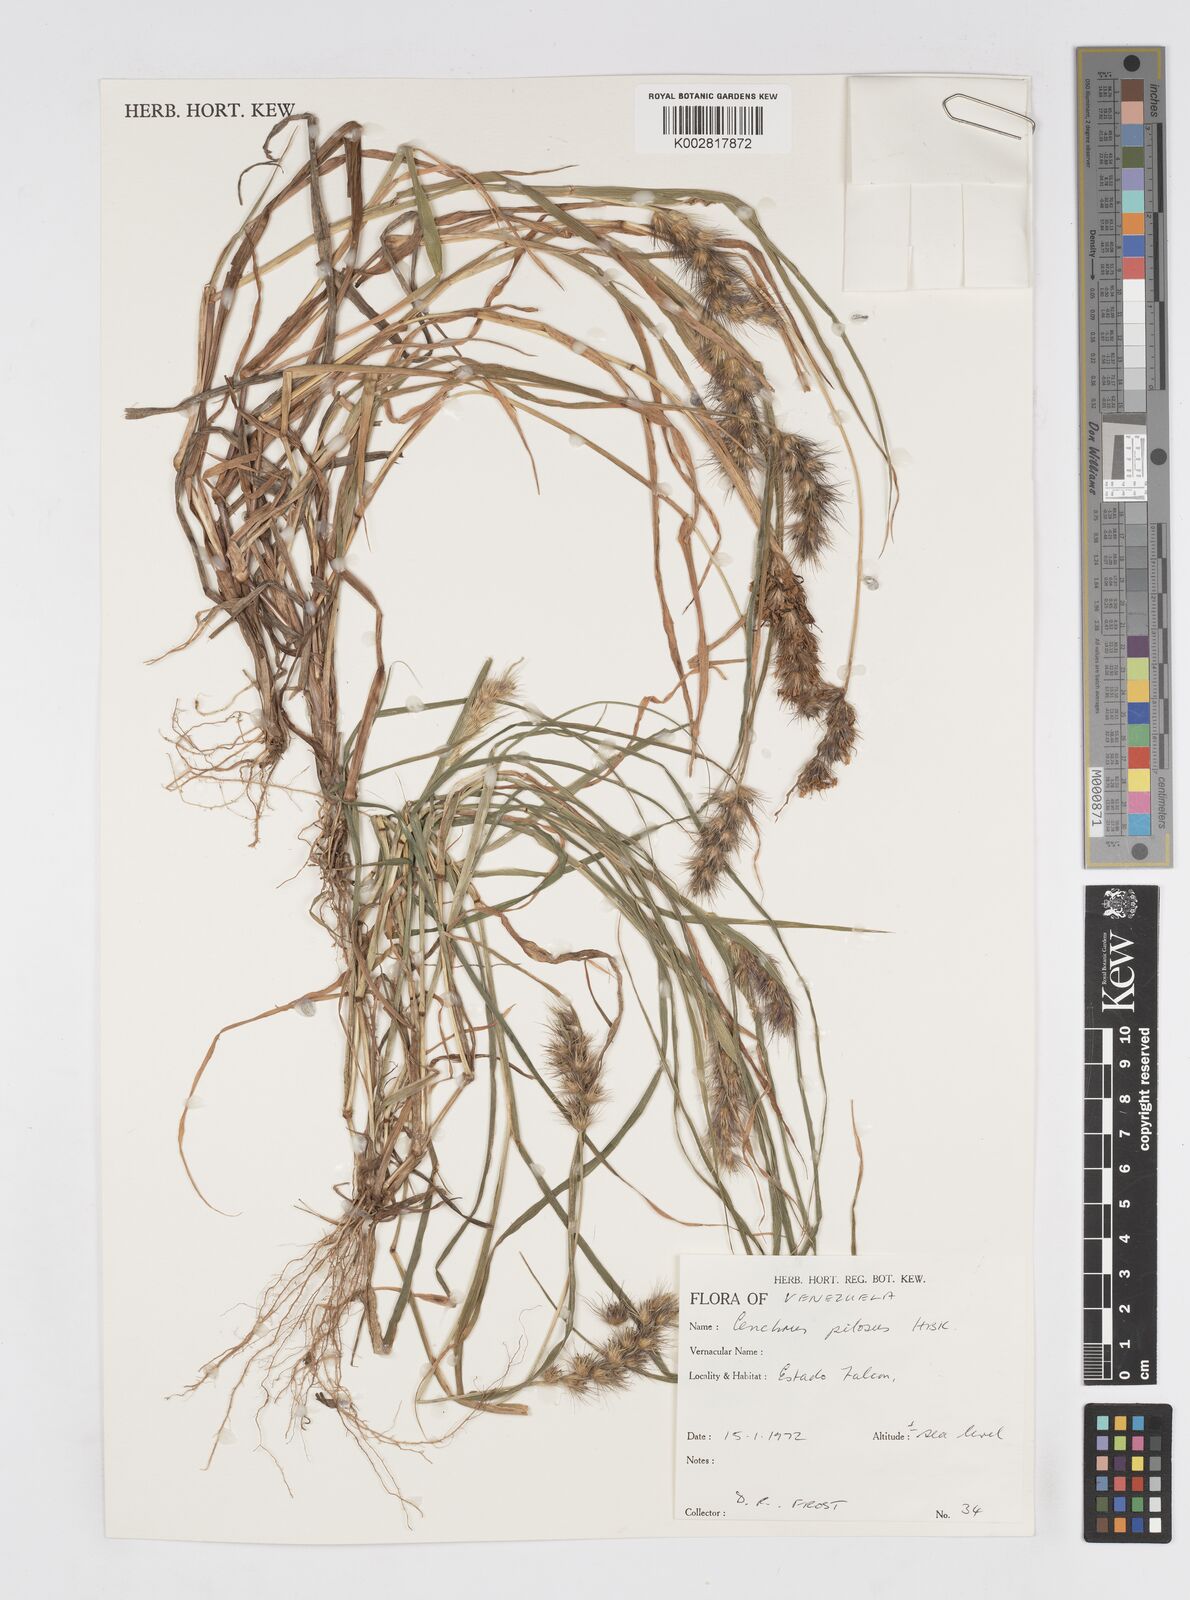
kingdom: Plantae
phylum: Tracheophyta
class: Liliopsida
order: Poales
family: Poaceae
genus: Cenchrus
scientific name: Cenchrus pilosus
